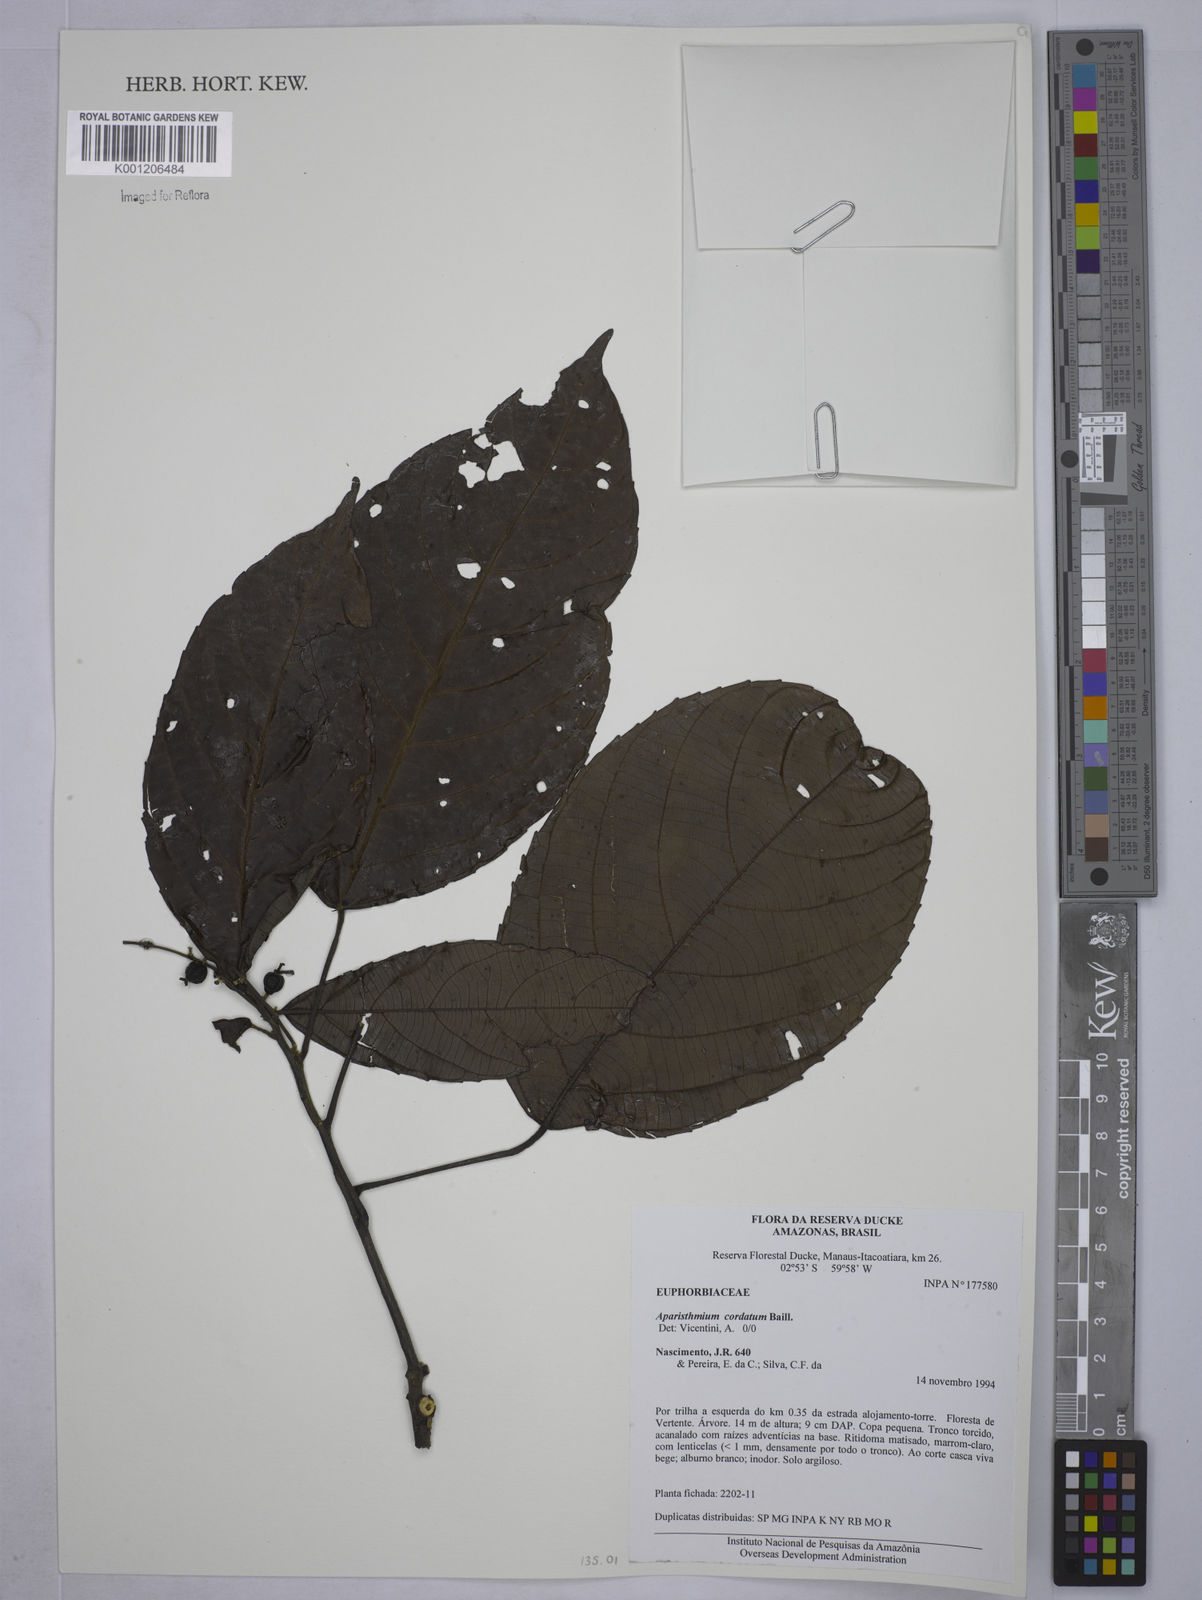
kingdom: Plantae
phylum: Tracheophyta
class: Magnoliopsida
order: Malpighiales
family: Euphorbiaceae
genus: Aparisthmium
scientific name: Aparisthmium cordatum
